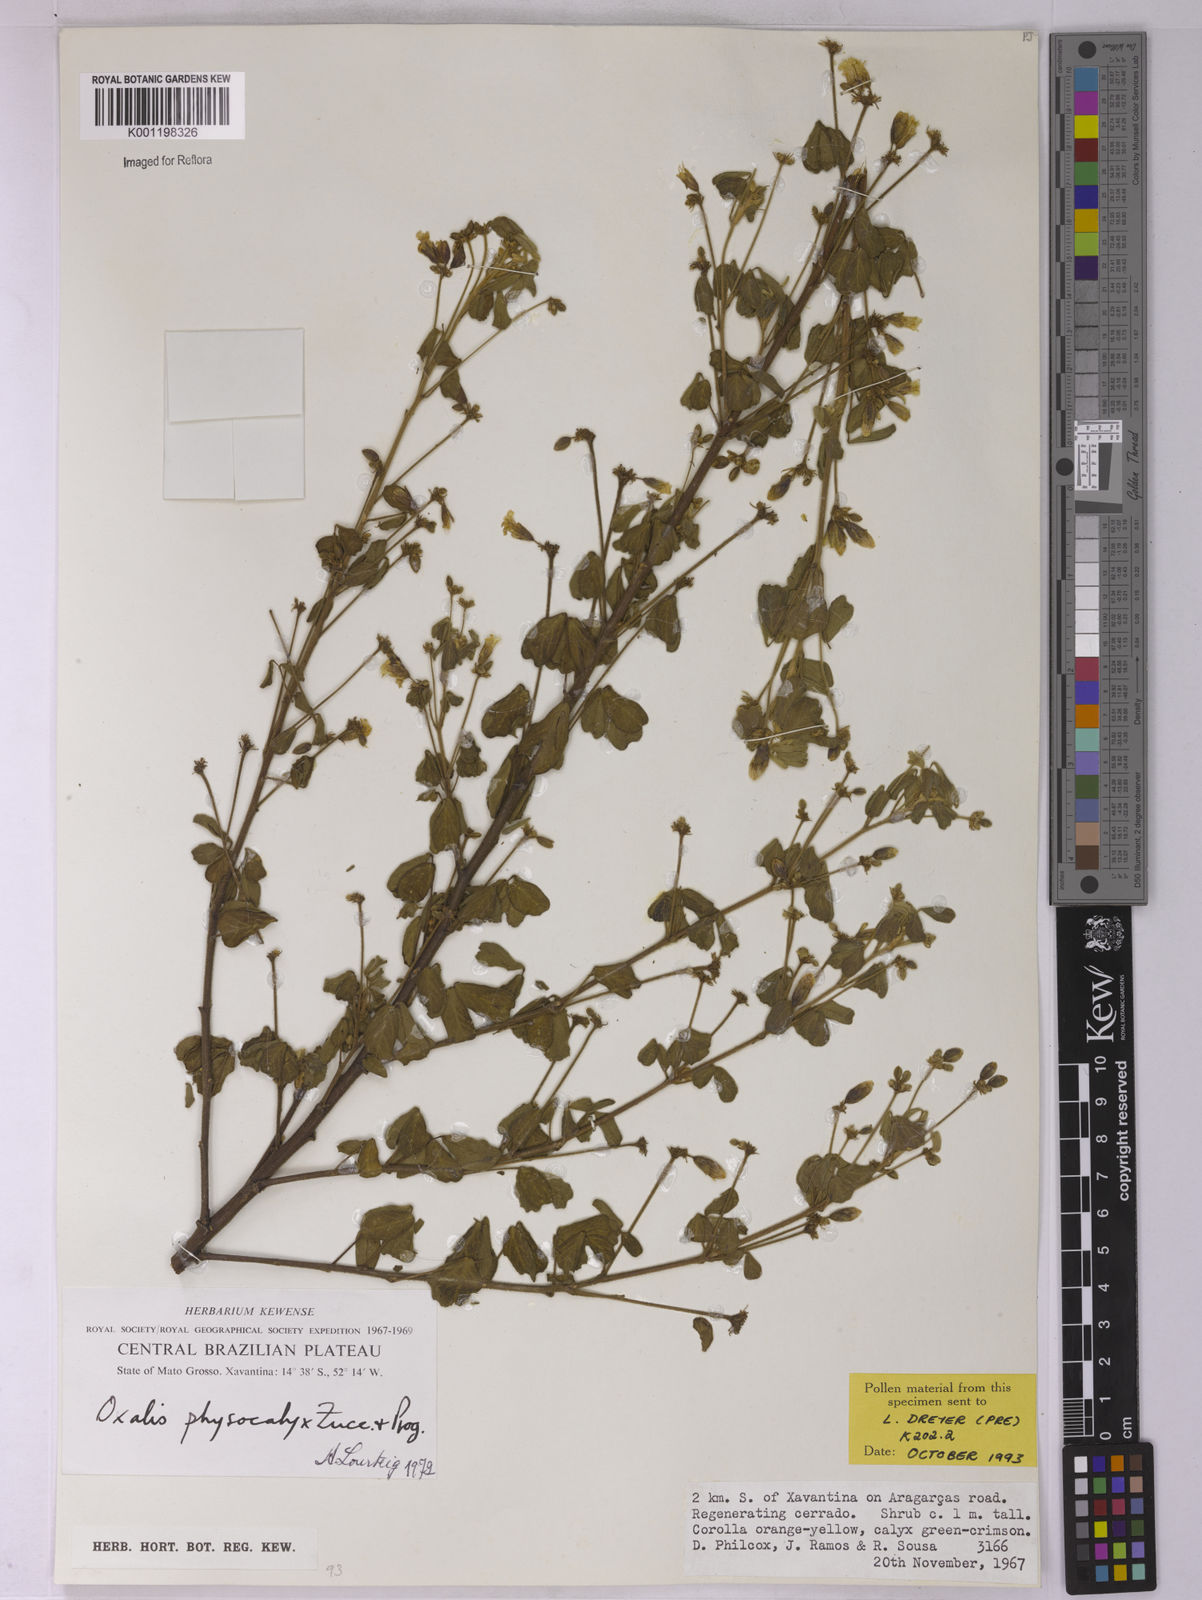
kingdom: Plantae
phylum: Tracheophyta
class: Magnoliopsida
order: Oxalidales
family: Oxalidaceae
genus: Oxalis
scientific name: Oxalis physocalyx
